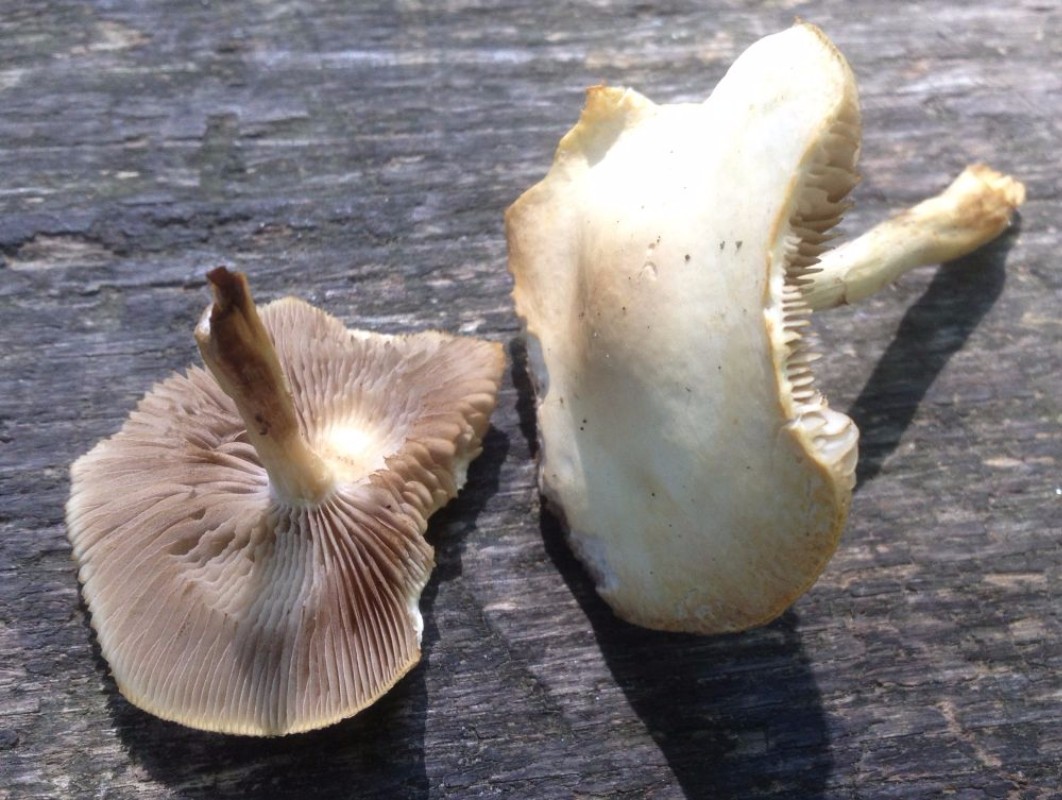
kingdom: Fungi
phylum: Basidiomycota
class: Agaricomycetes
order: Agaricales
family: Strophariaceae
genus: Agrocybe
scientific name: Agrocybe praecox
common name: tidlig agerhat
